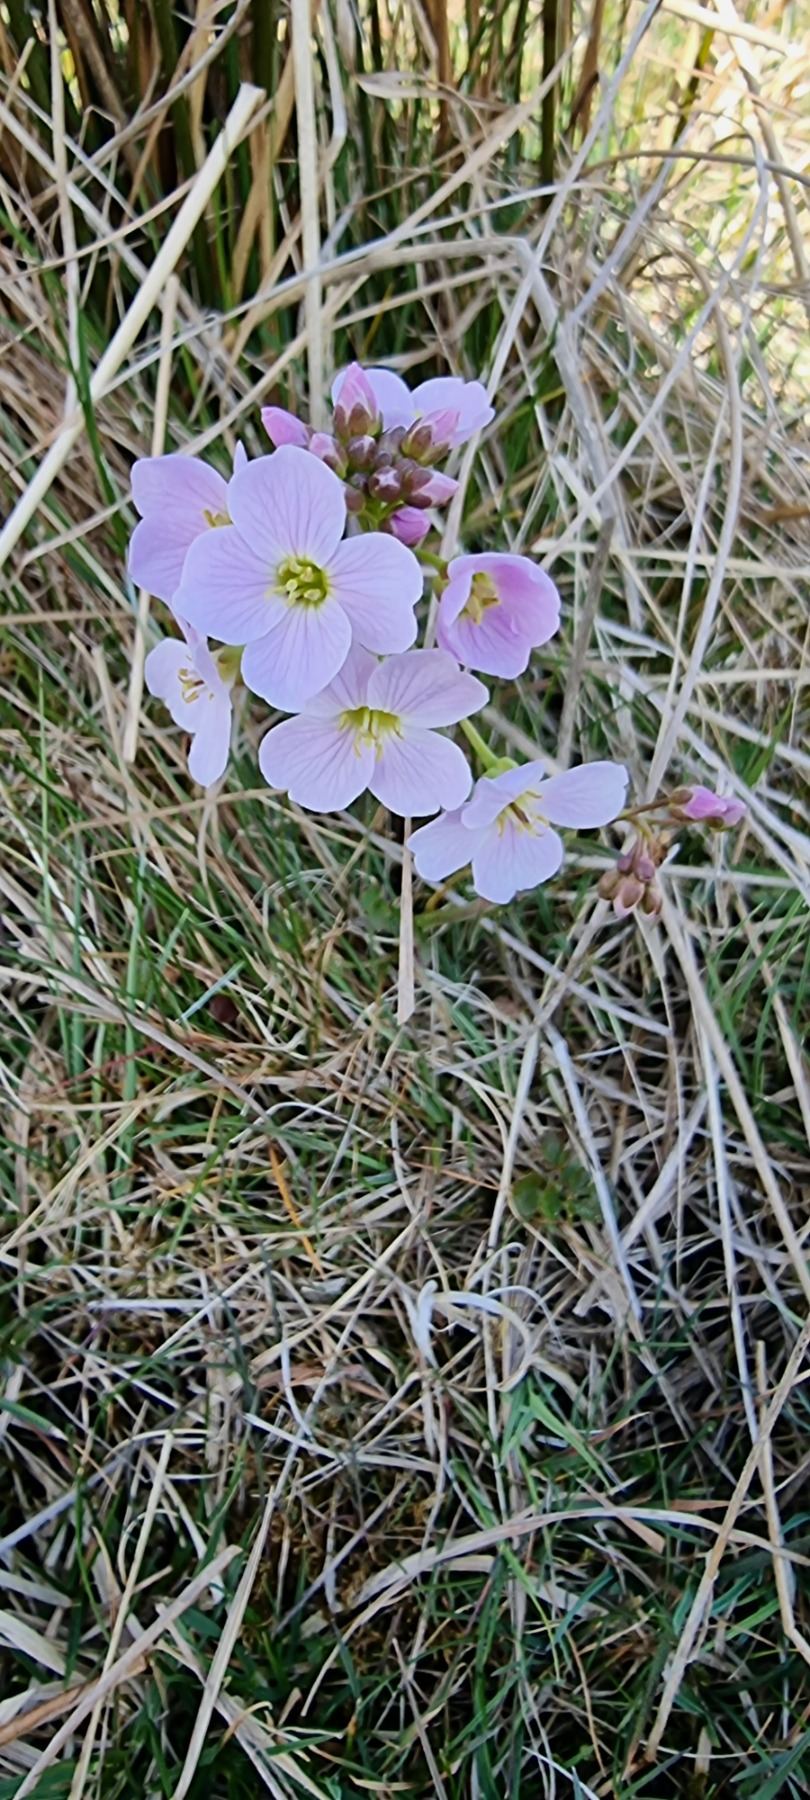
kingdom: Plantae
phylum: Tracheophyta
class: Magnoliopsida
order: Brassicales
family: Brassicaceae
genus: Cardamine
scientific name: Cardamine pratensis
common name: Engkarse
